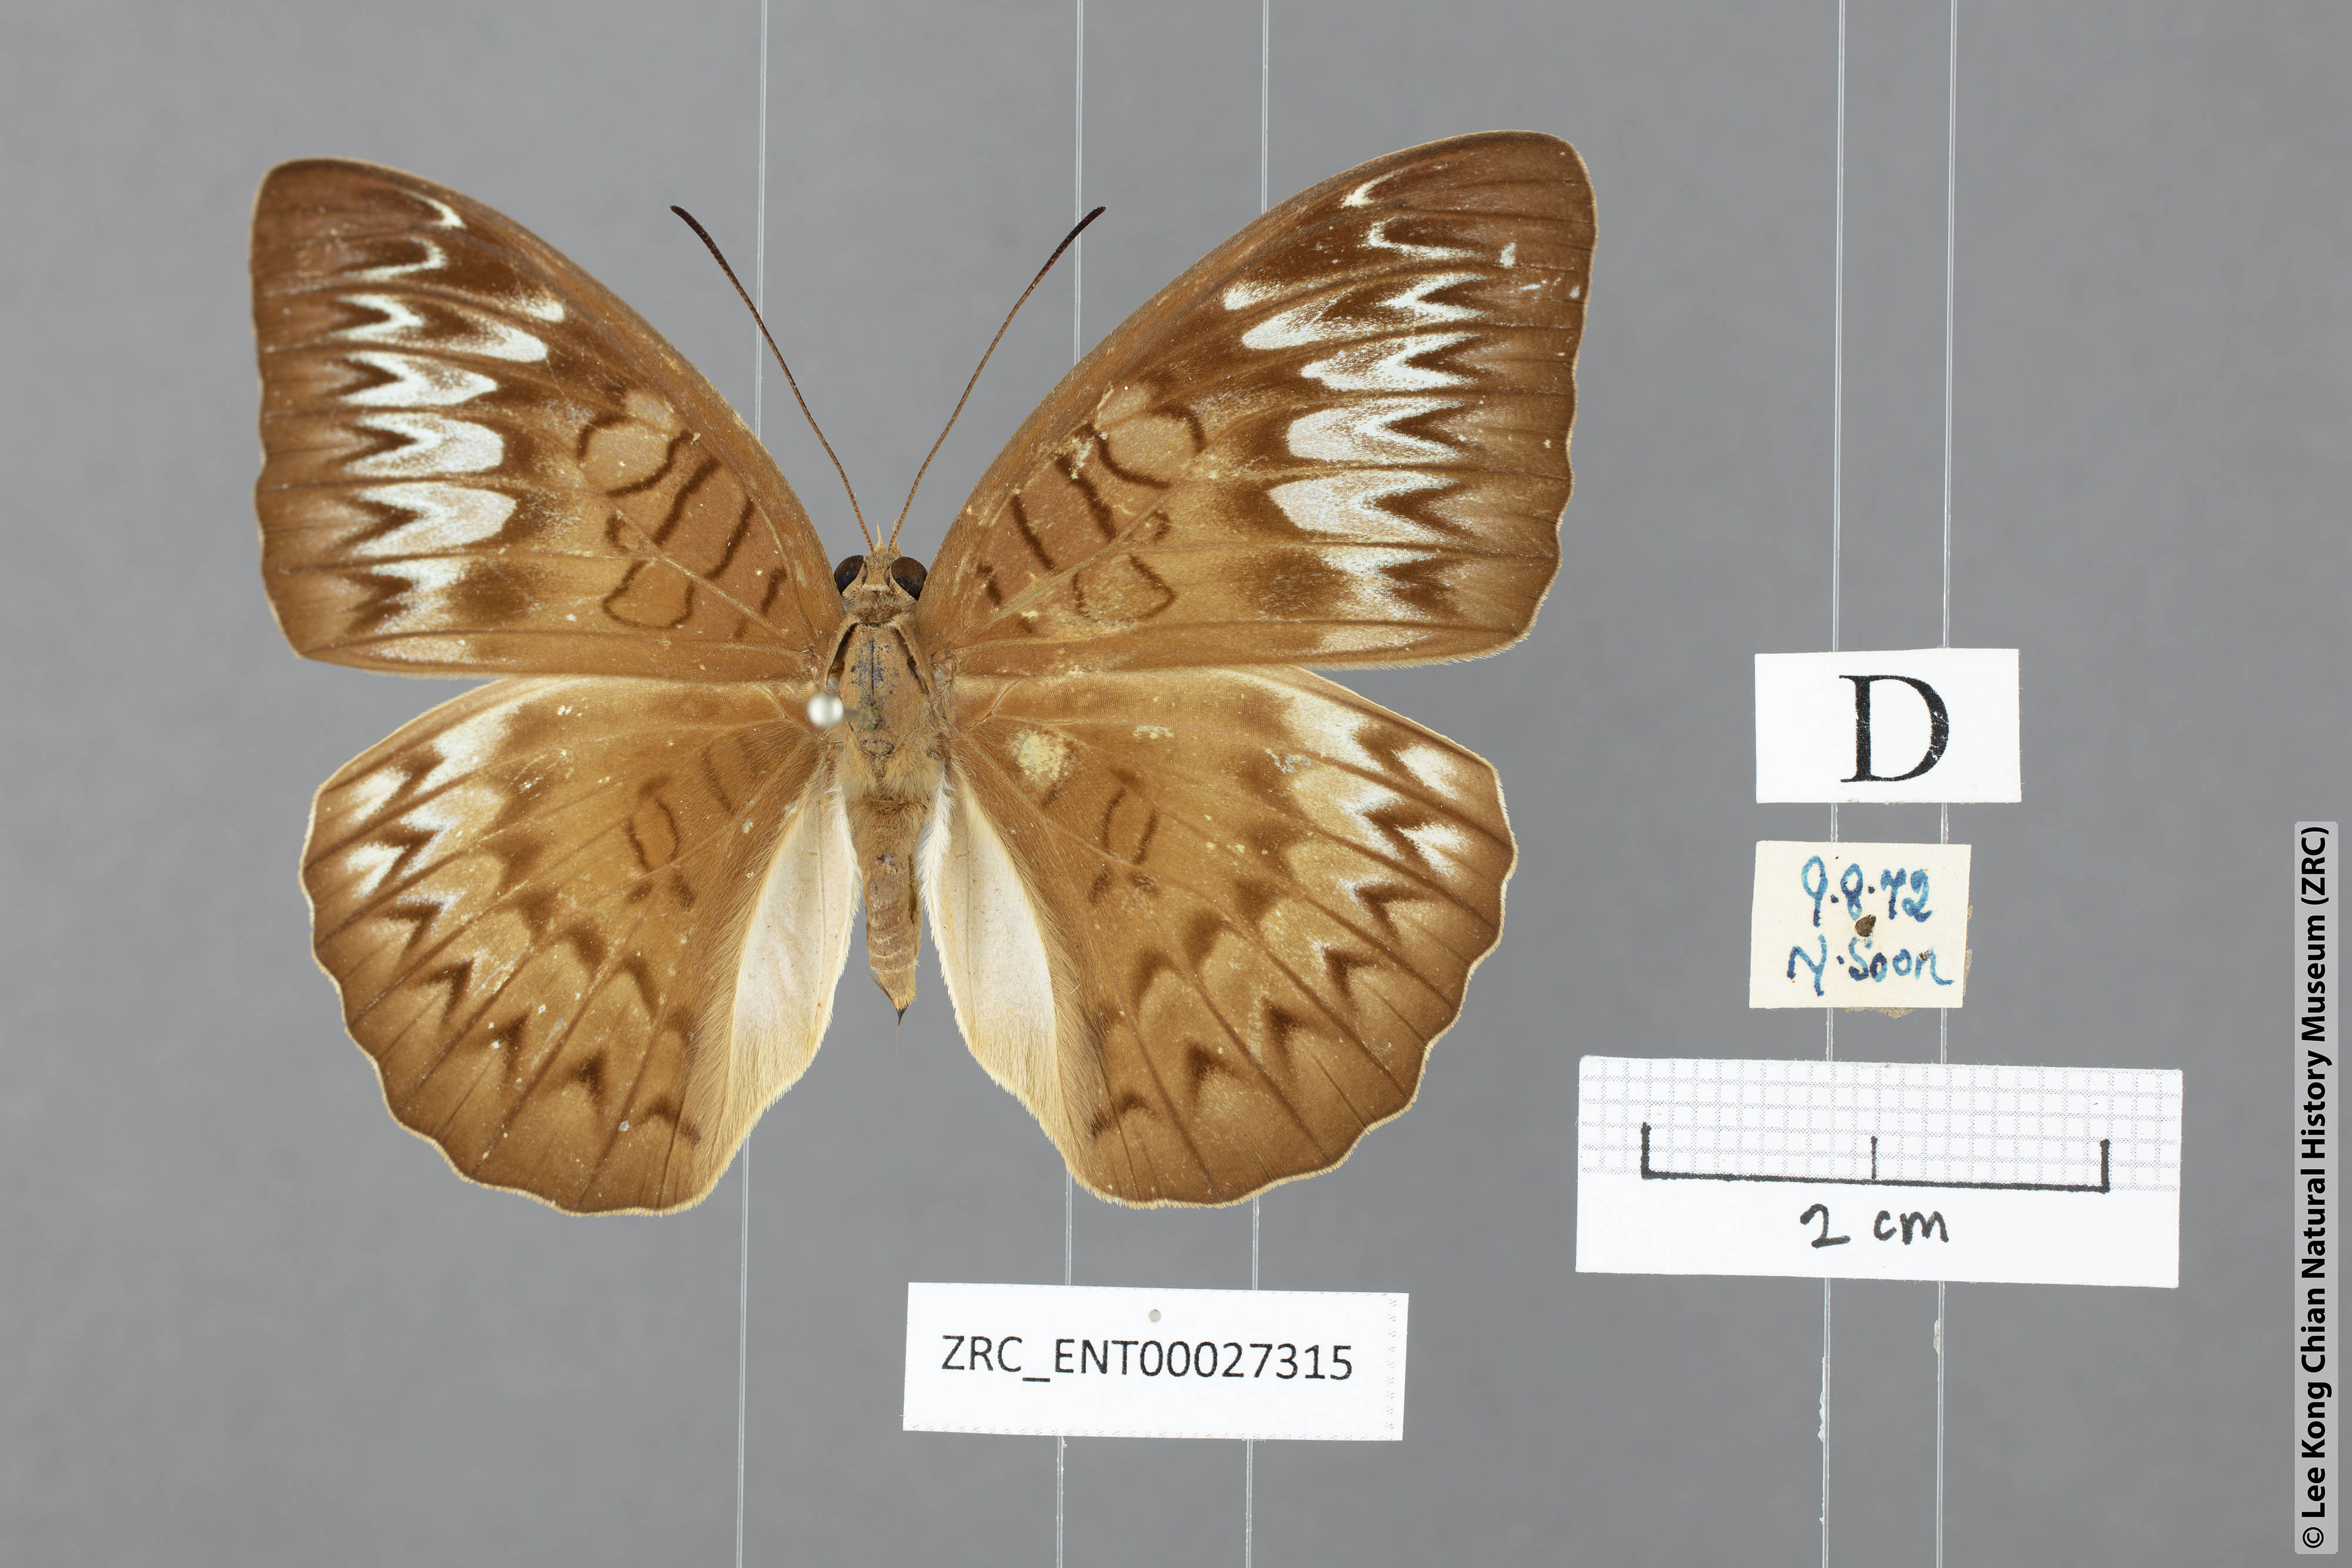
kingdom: Animalia
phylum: Arthropoda
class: Insecta
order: Lepidoptera
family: Nymphalidae
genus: Tanaecia
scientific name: Tanaecia pelea
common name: Malay viscount
